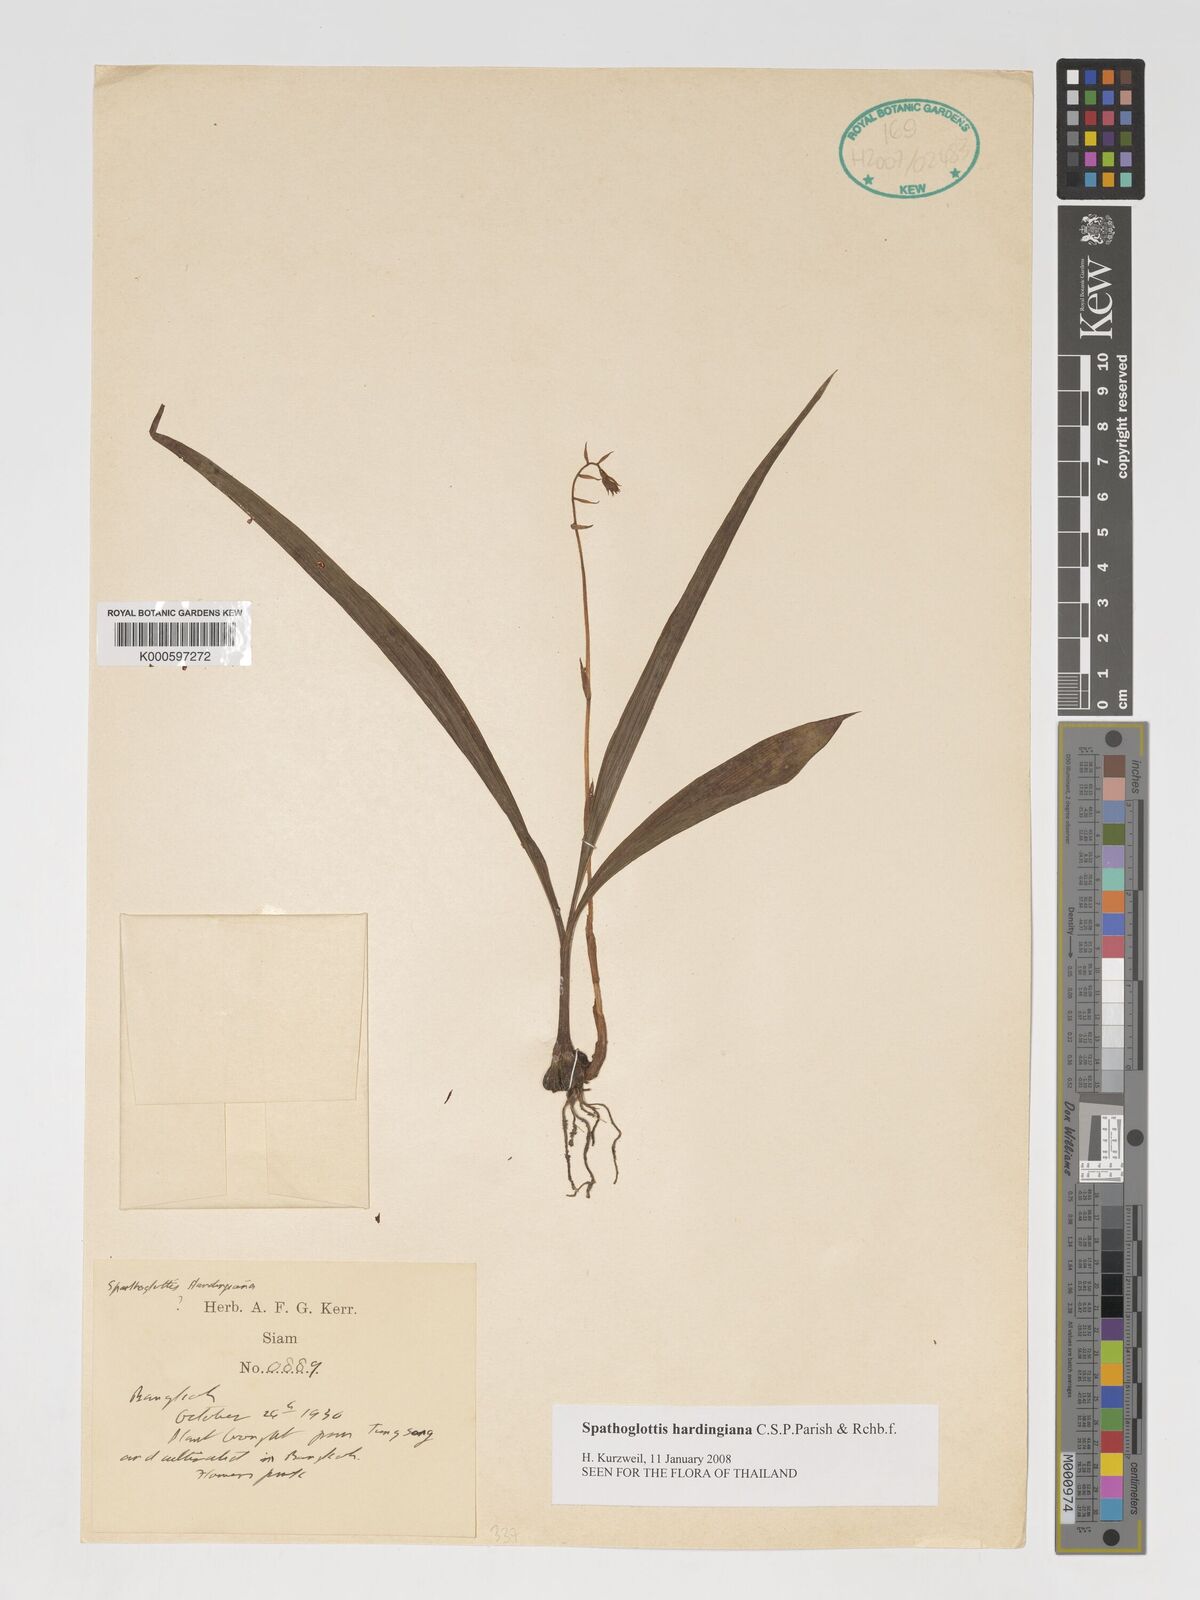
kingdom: Plantae
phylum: Tracheophyta
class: Liliopsida
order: Asparagales
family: Orchidaceae
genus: Spathoglottis
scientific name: Spathoglottis hardingiana
